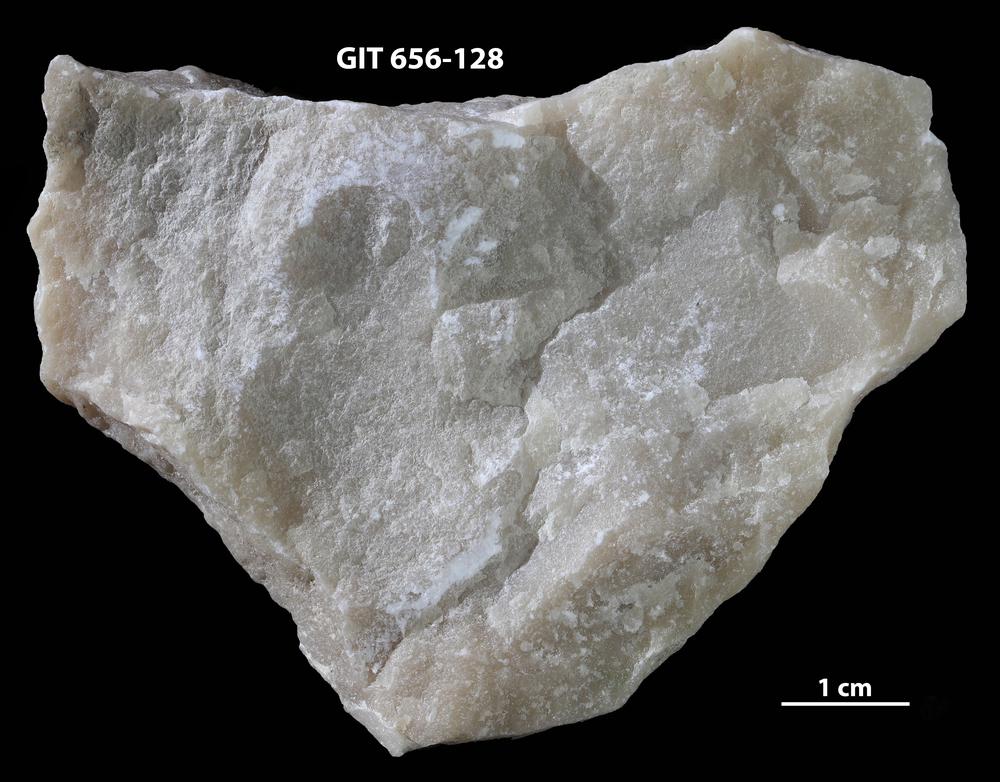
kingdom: Animalia
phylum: Porifera
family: Actinostromatidae
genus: Plectostroma
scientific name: Plectostroma
